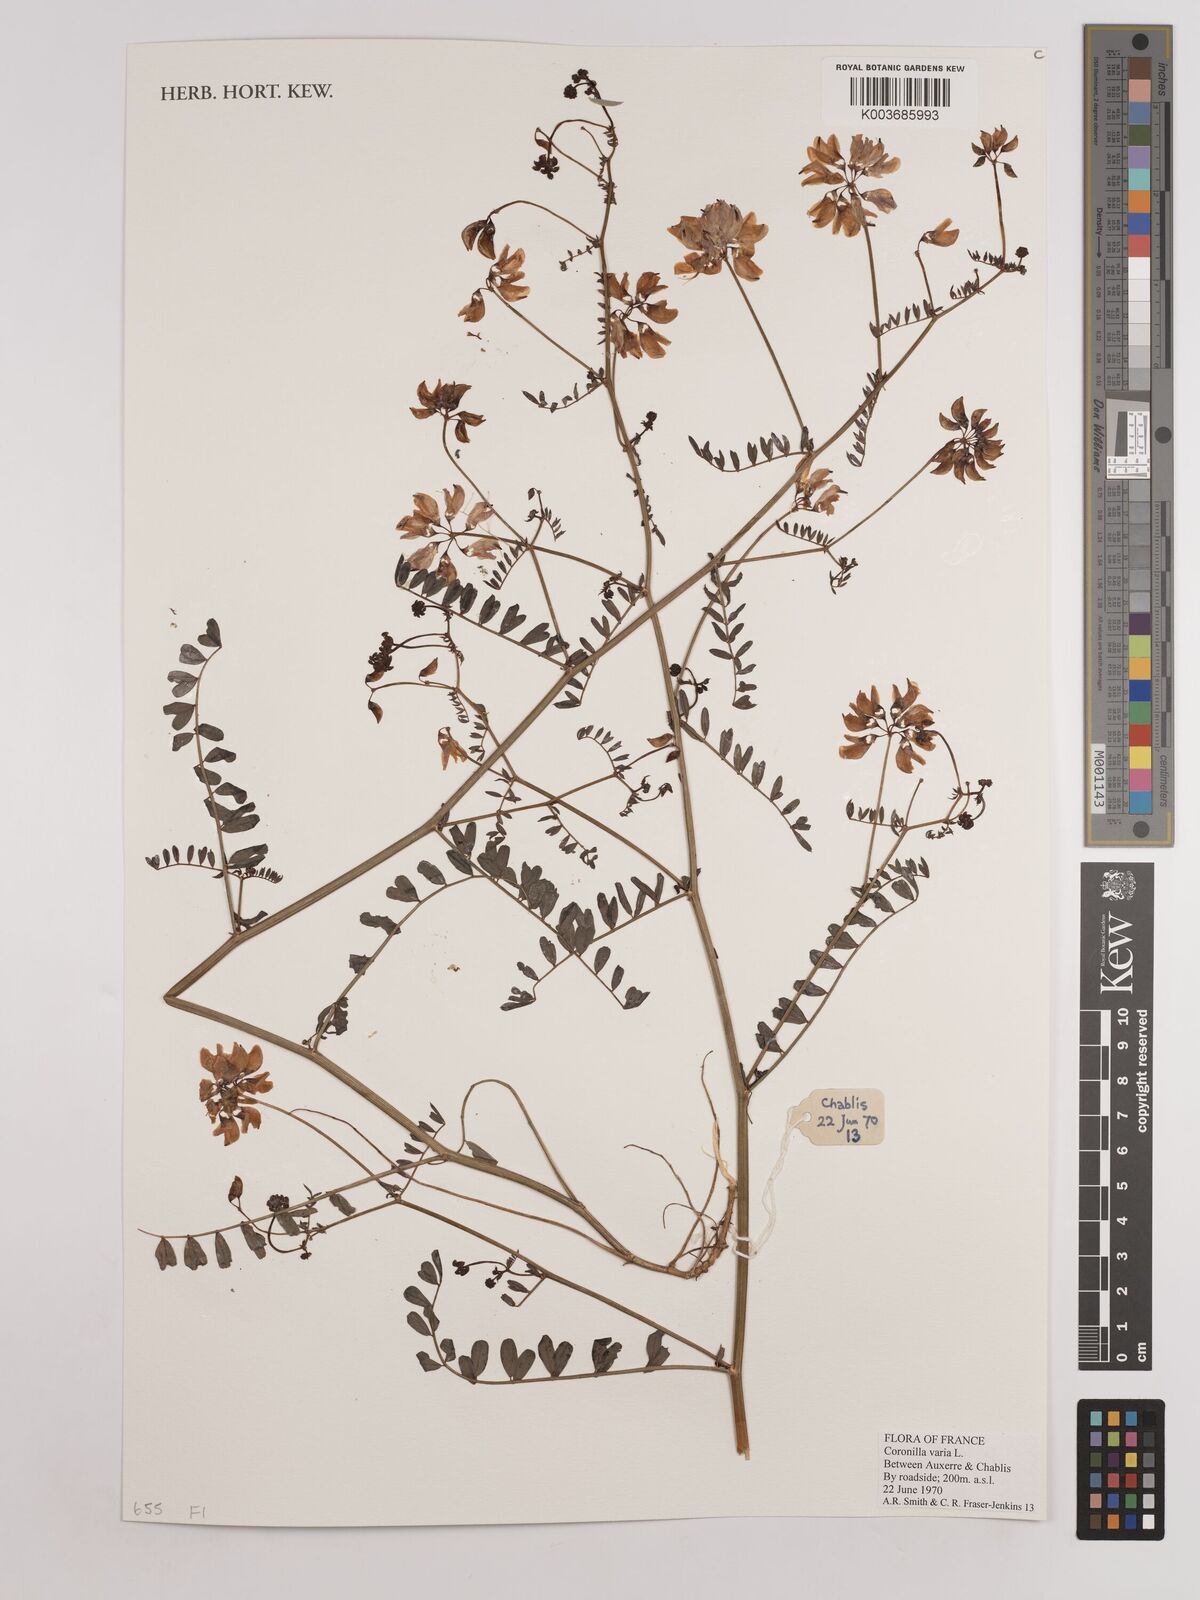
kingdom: Plantae
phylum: Tracheophyta
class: Magnoliopsida
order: Fabales
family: Fabaceae
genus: Coronilla
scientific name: Coronilla varia
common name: Crownvetch
